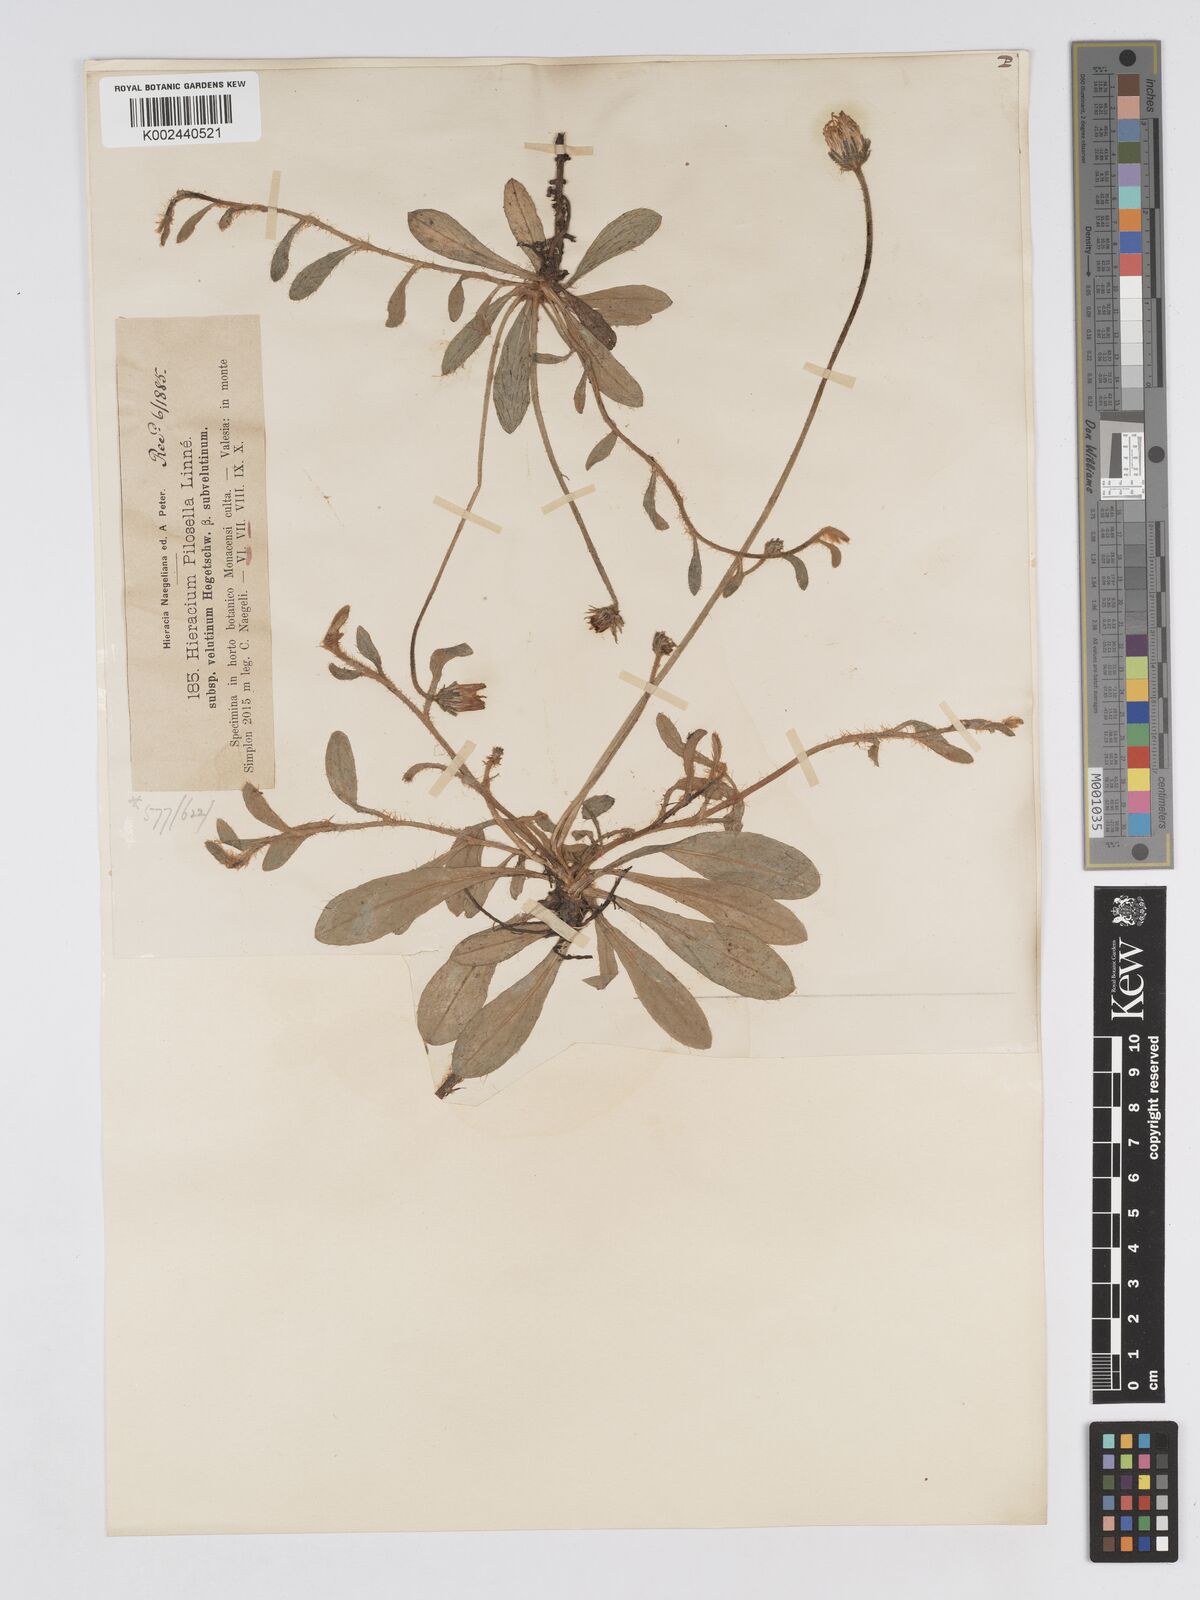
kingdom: Plantae
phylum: Tracheophyta
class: Magnoliopsida
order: Asterales
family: Asteraceae
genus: Pilosella
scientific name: Pilosella velutina
